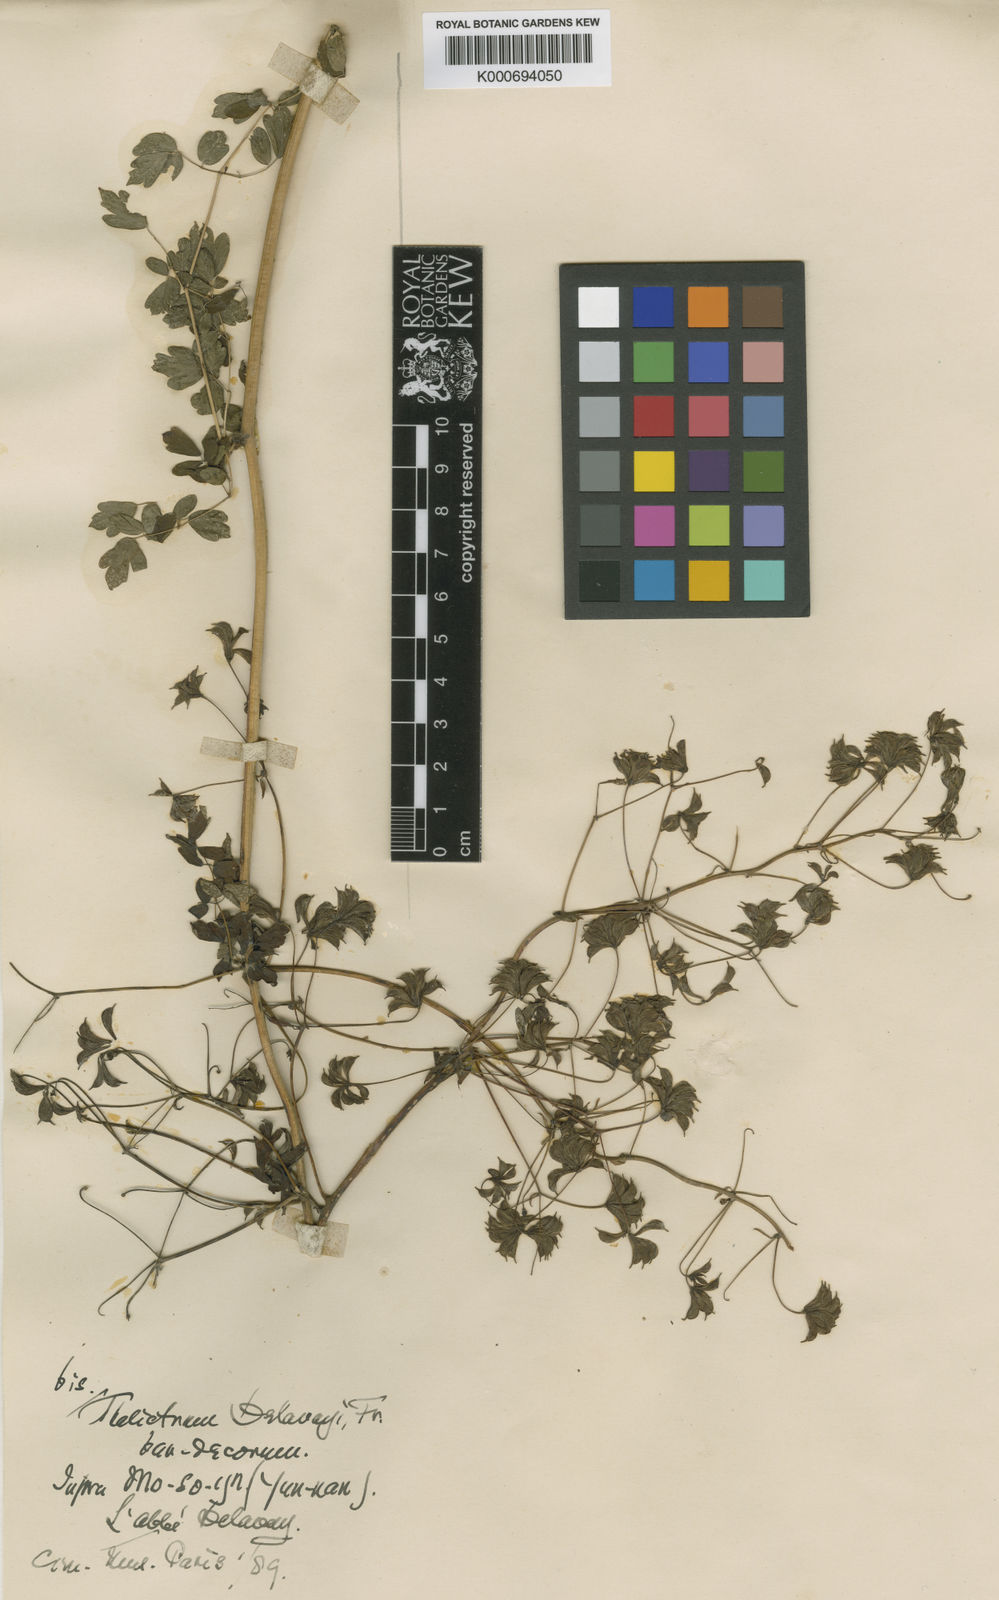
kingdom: Plantae
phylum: Tracheophyta
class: Magnoliopsida
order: Ranunculales
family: Ranunculaceae
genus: Thalictrum
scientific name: Thalictrum delavayi
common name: Chinese meadow-rue
